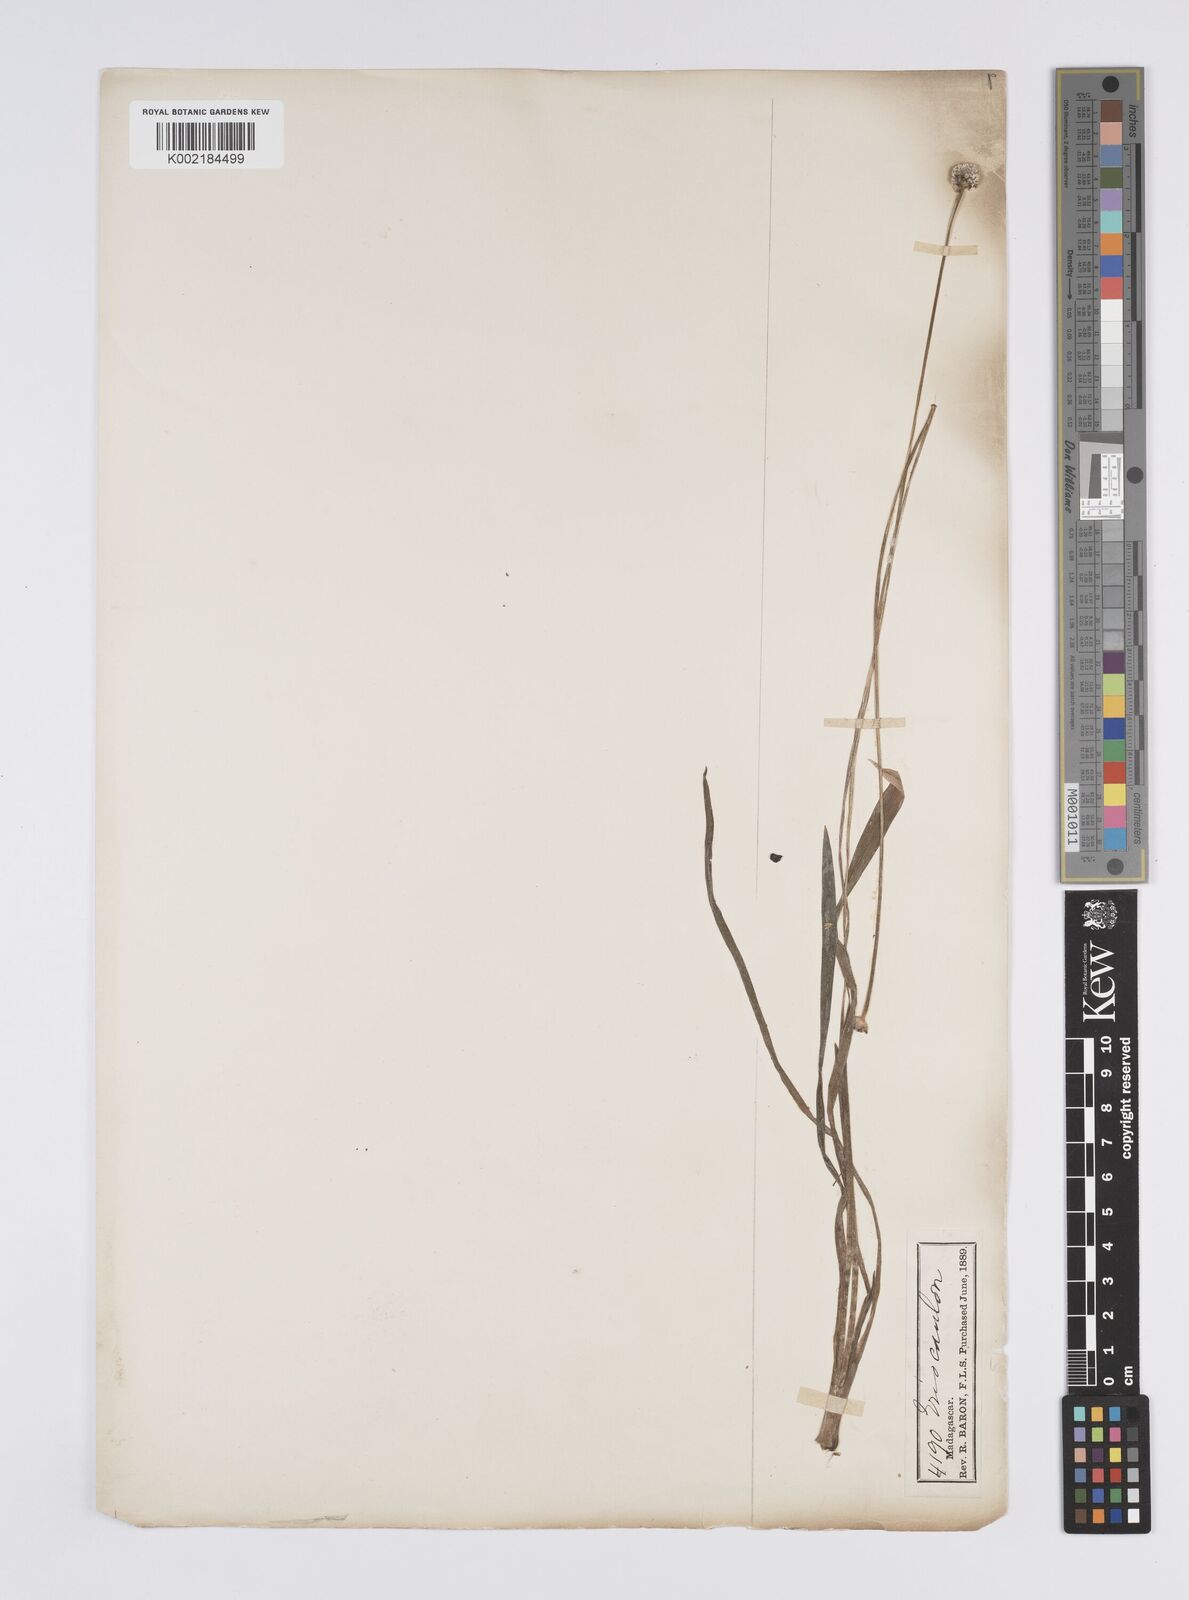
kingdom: Plantae
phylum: Tracheophyta
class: Liliopsida
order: Poales
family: Eriocaulaceae
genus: Eriocaulon
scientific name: Eriocaulon
